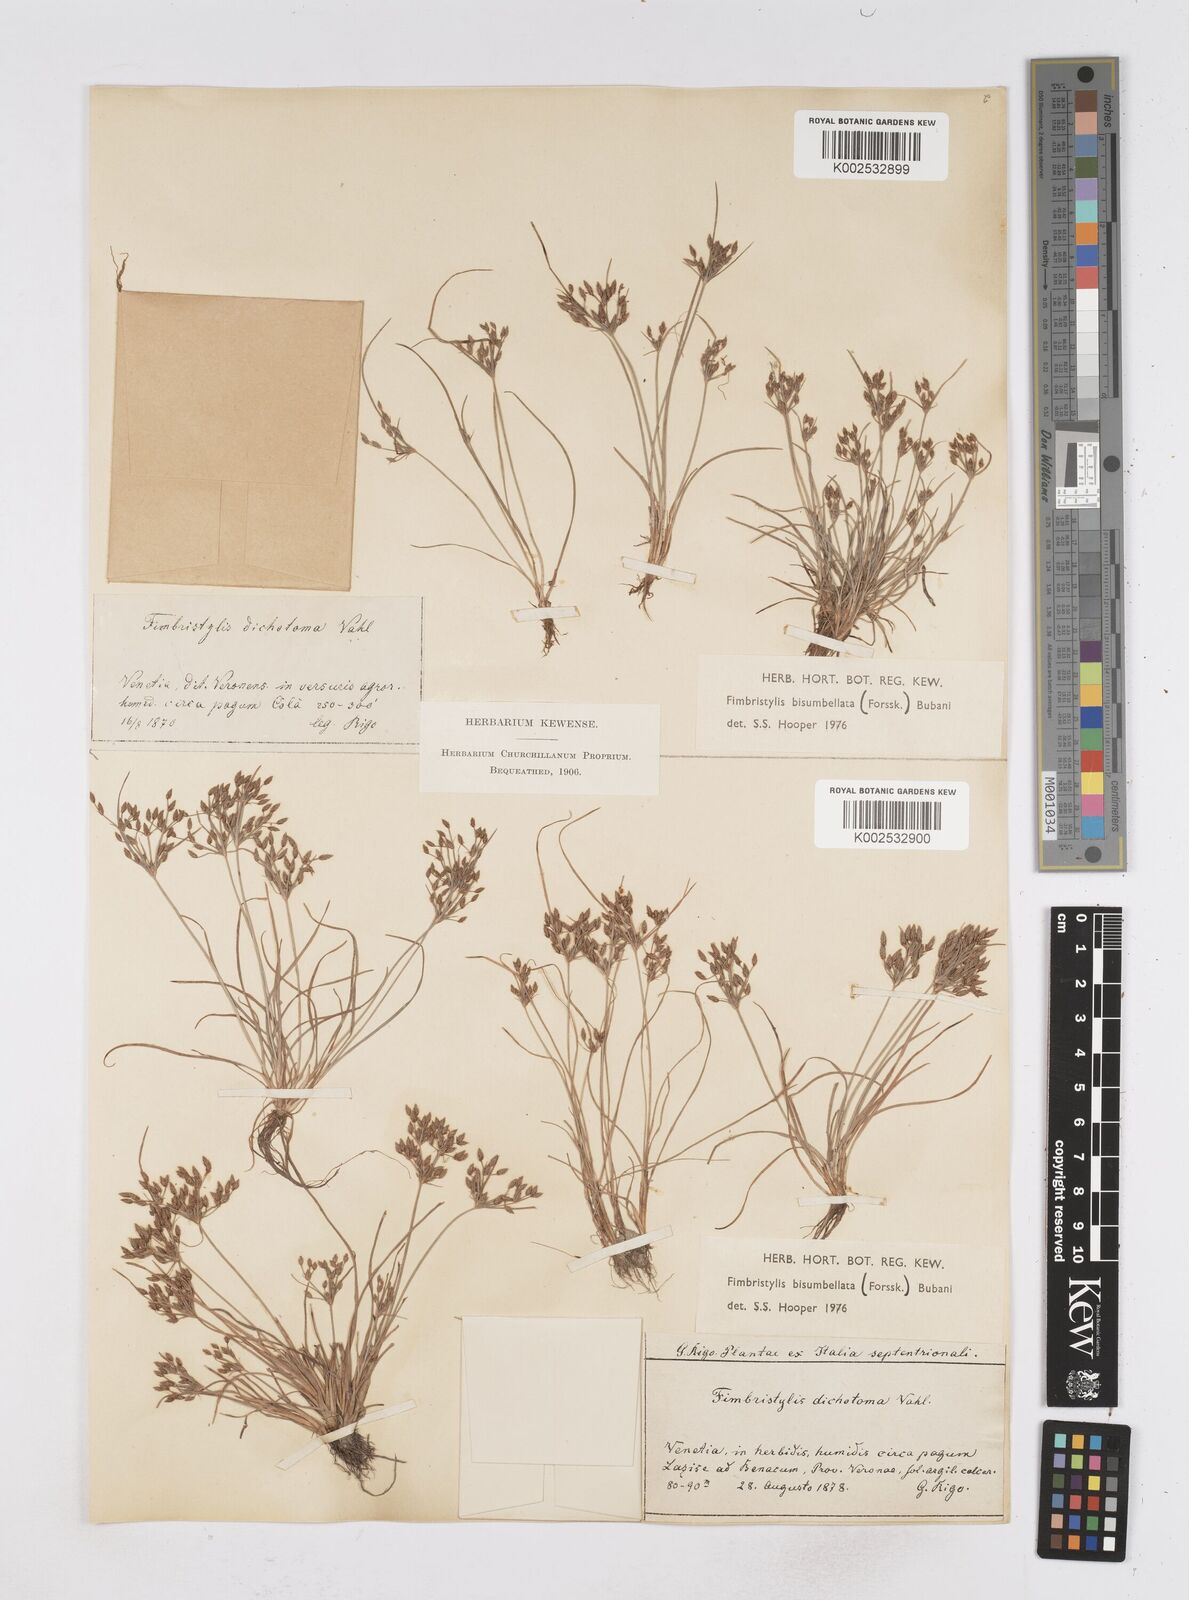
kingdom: Plantae
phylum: Tracheophyta
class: Liliopsida
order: Poales
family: Cyperaceae
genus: Fimbristylis
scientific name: Fimbristylis bisumbellata
